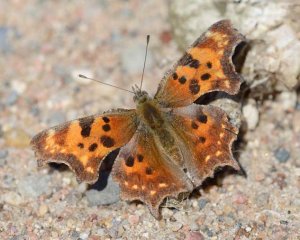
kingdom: Animalia
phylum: Arthropoda
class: Insecta
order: Lepidoptera
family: Nymphalidae
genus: Polygonia
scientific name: Polygonia comma
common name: Eastern Comma
